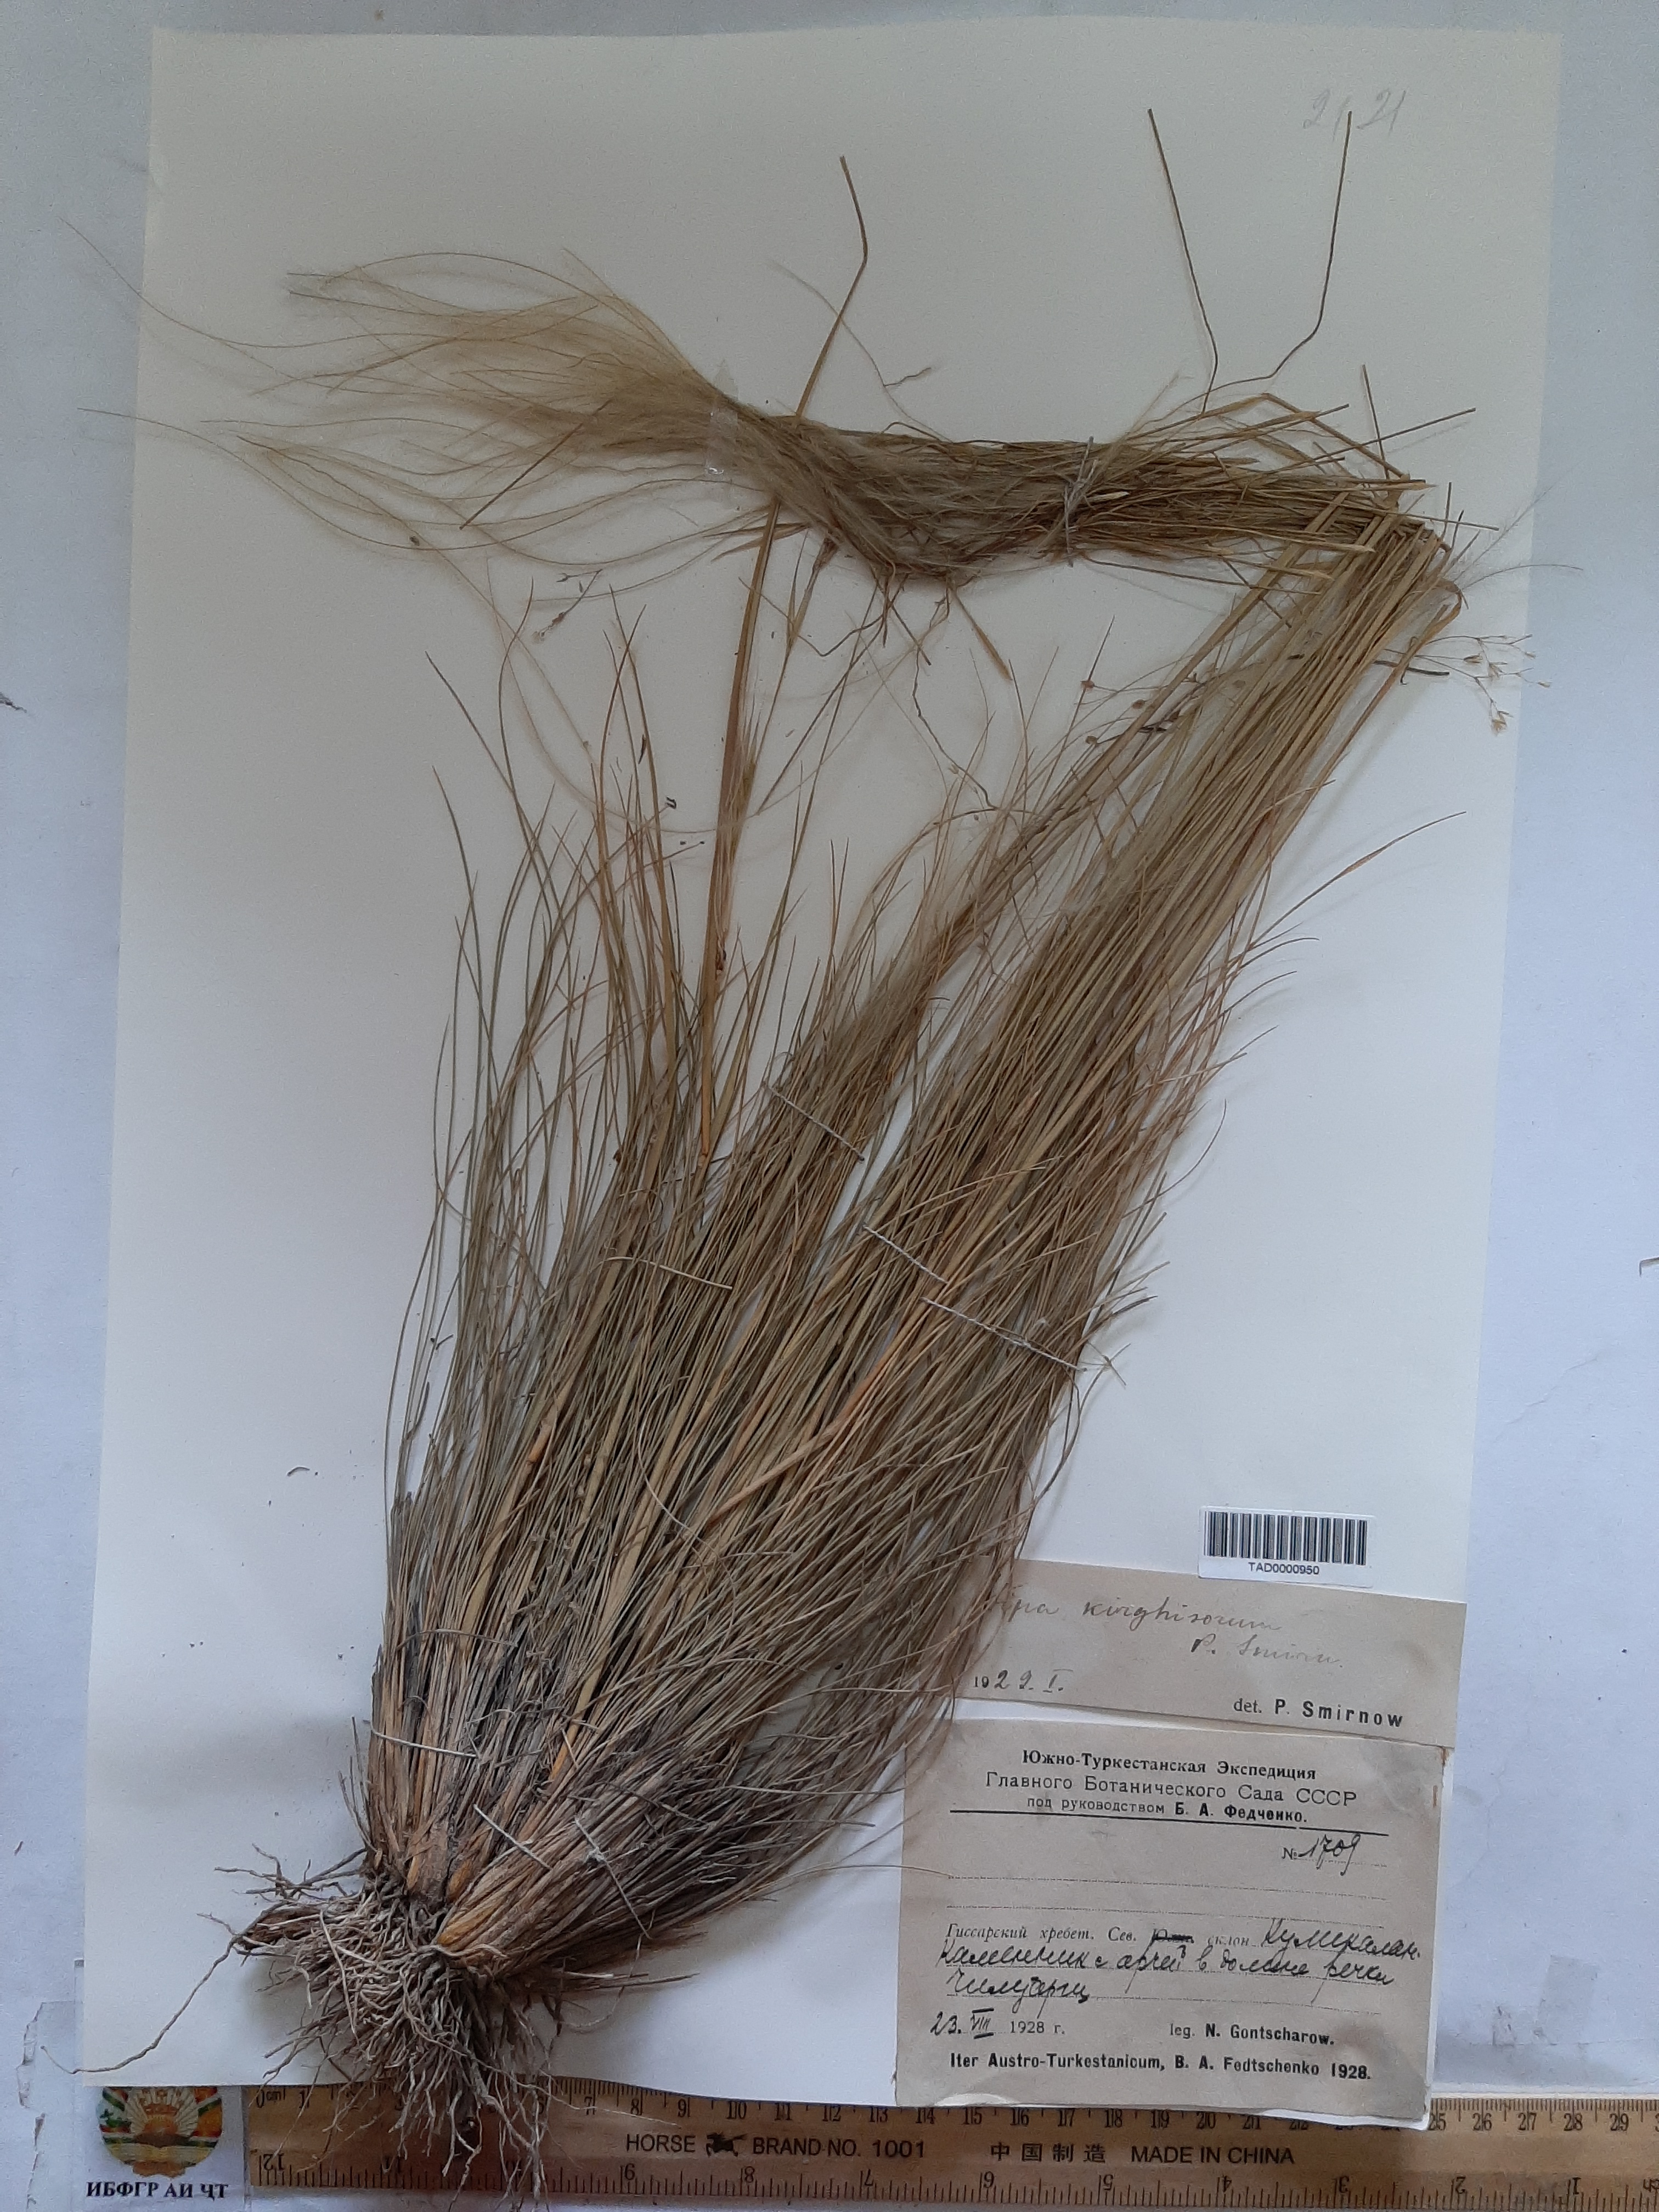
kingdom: Plantae
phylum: Tracheophyta
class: Liliopsida
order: Poales
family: Poaceae
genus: Stipa
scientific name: Stipa kirghisorum
